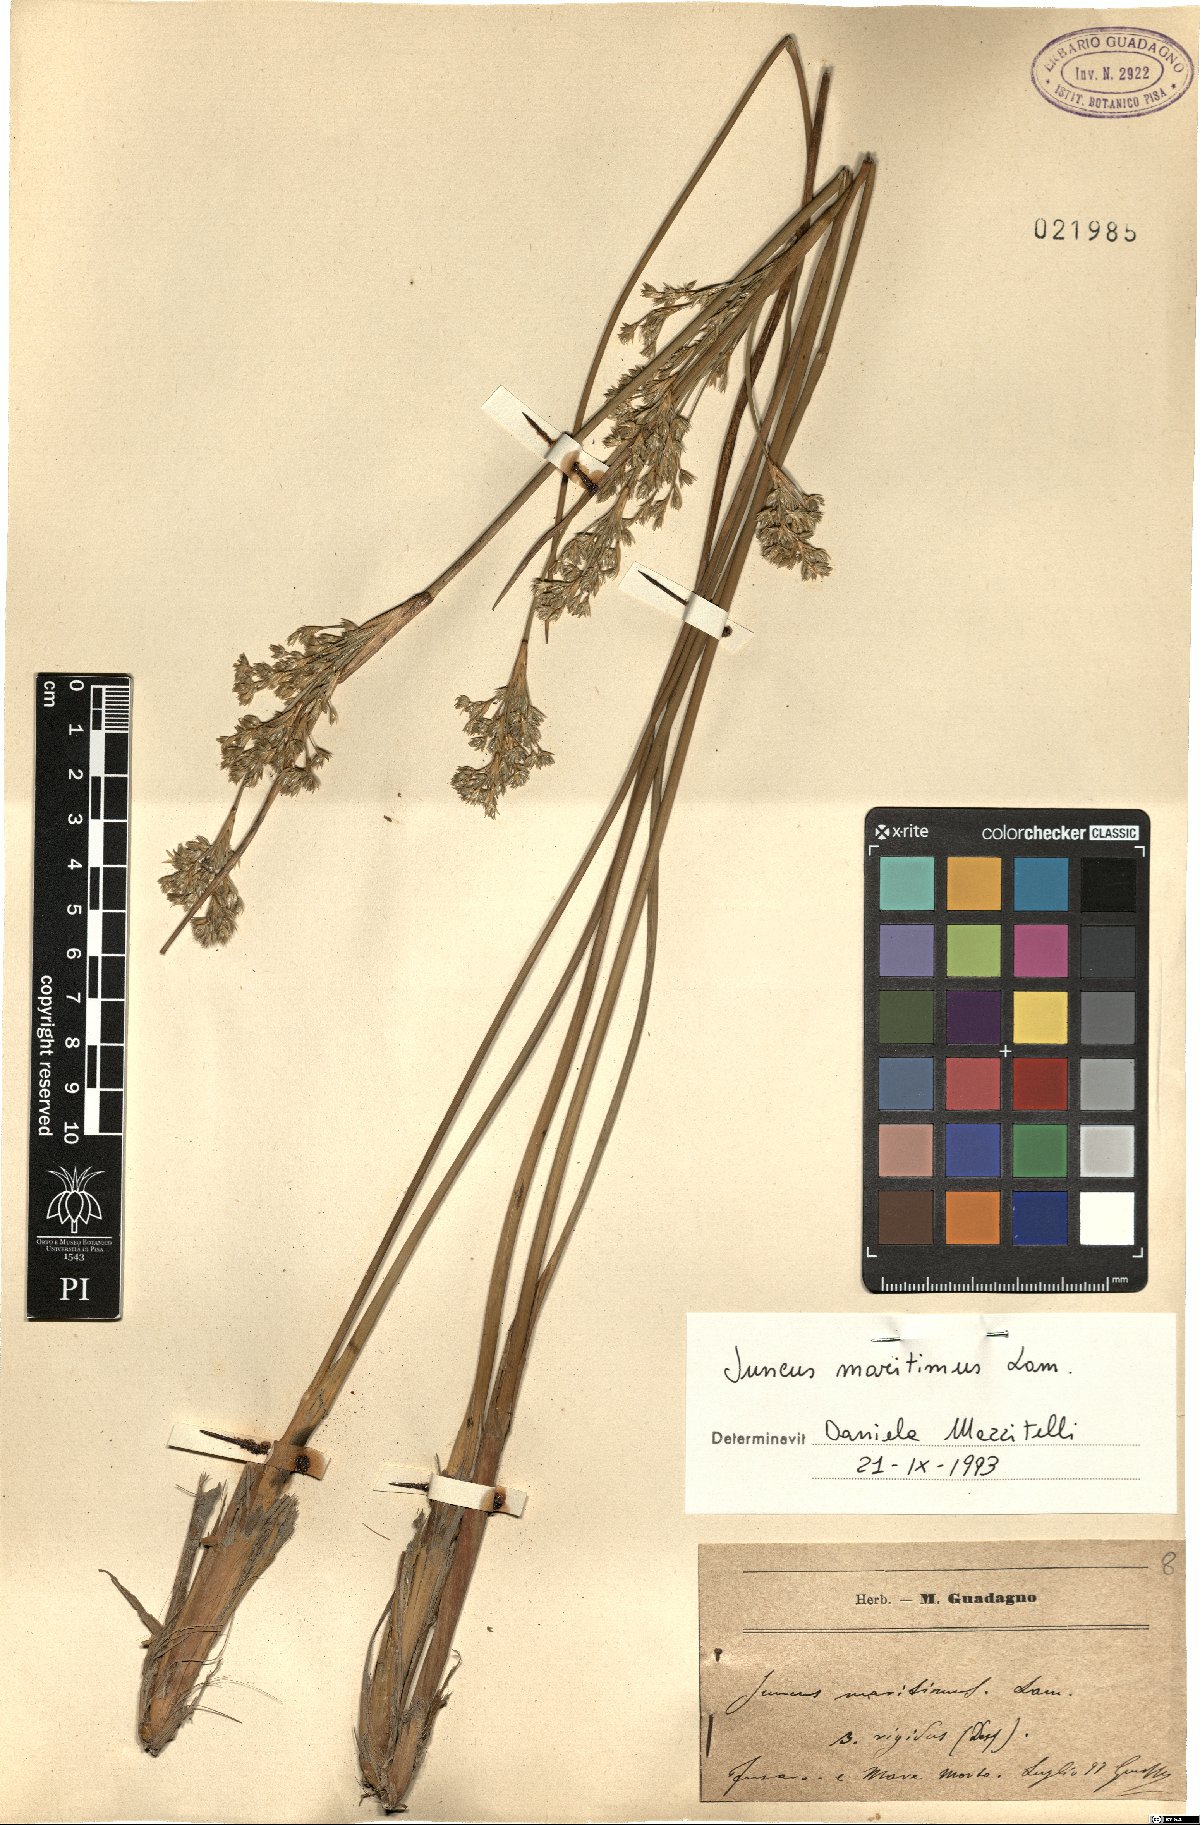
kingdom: Plantae
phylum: Tracheophyta
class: Liliopsida
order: Poales
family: Juncaceae
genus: Juncus
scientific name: Juncus maritimus
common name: Sea rush
